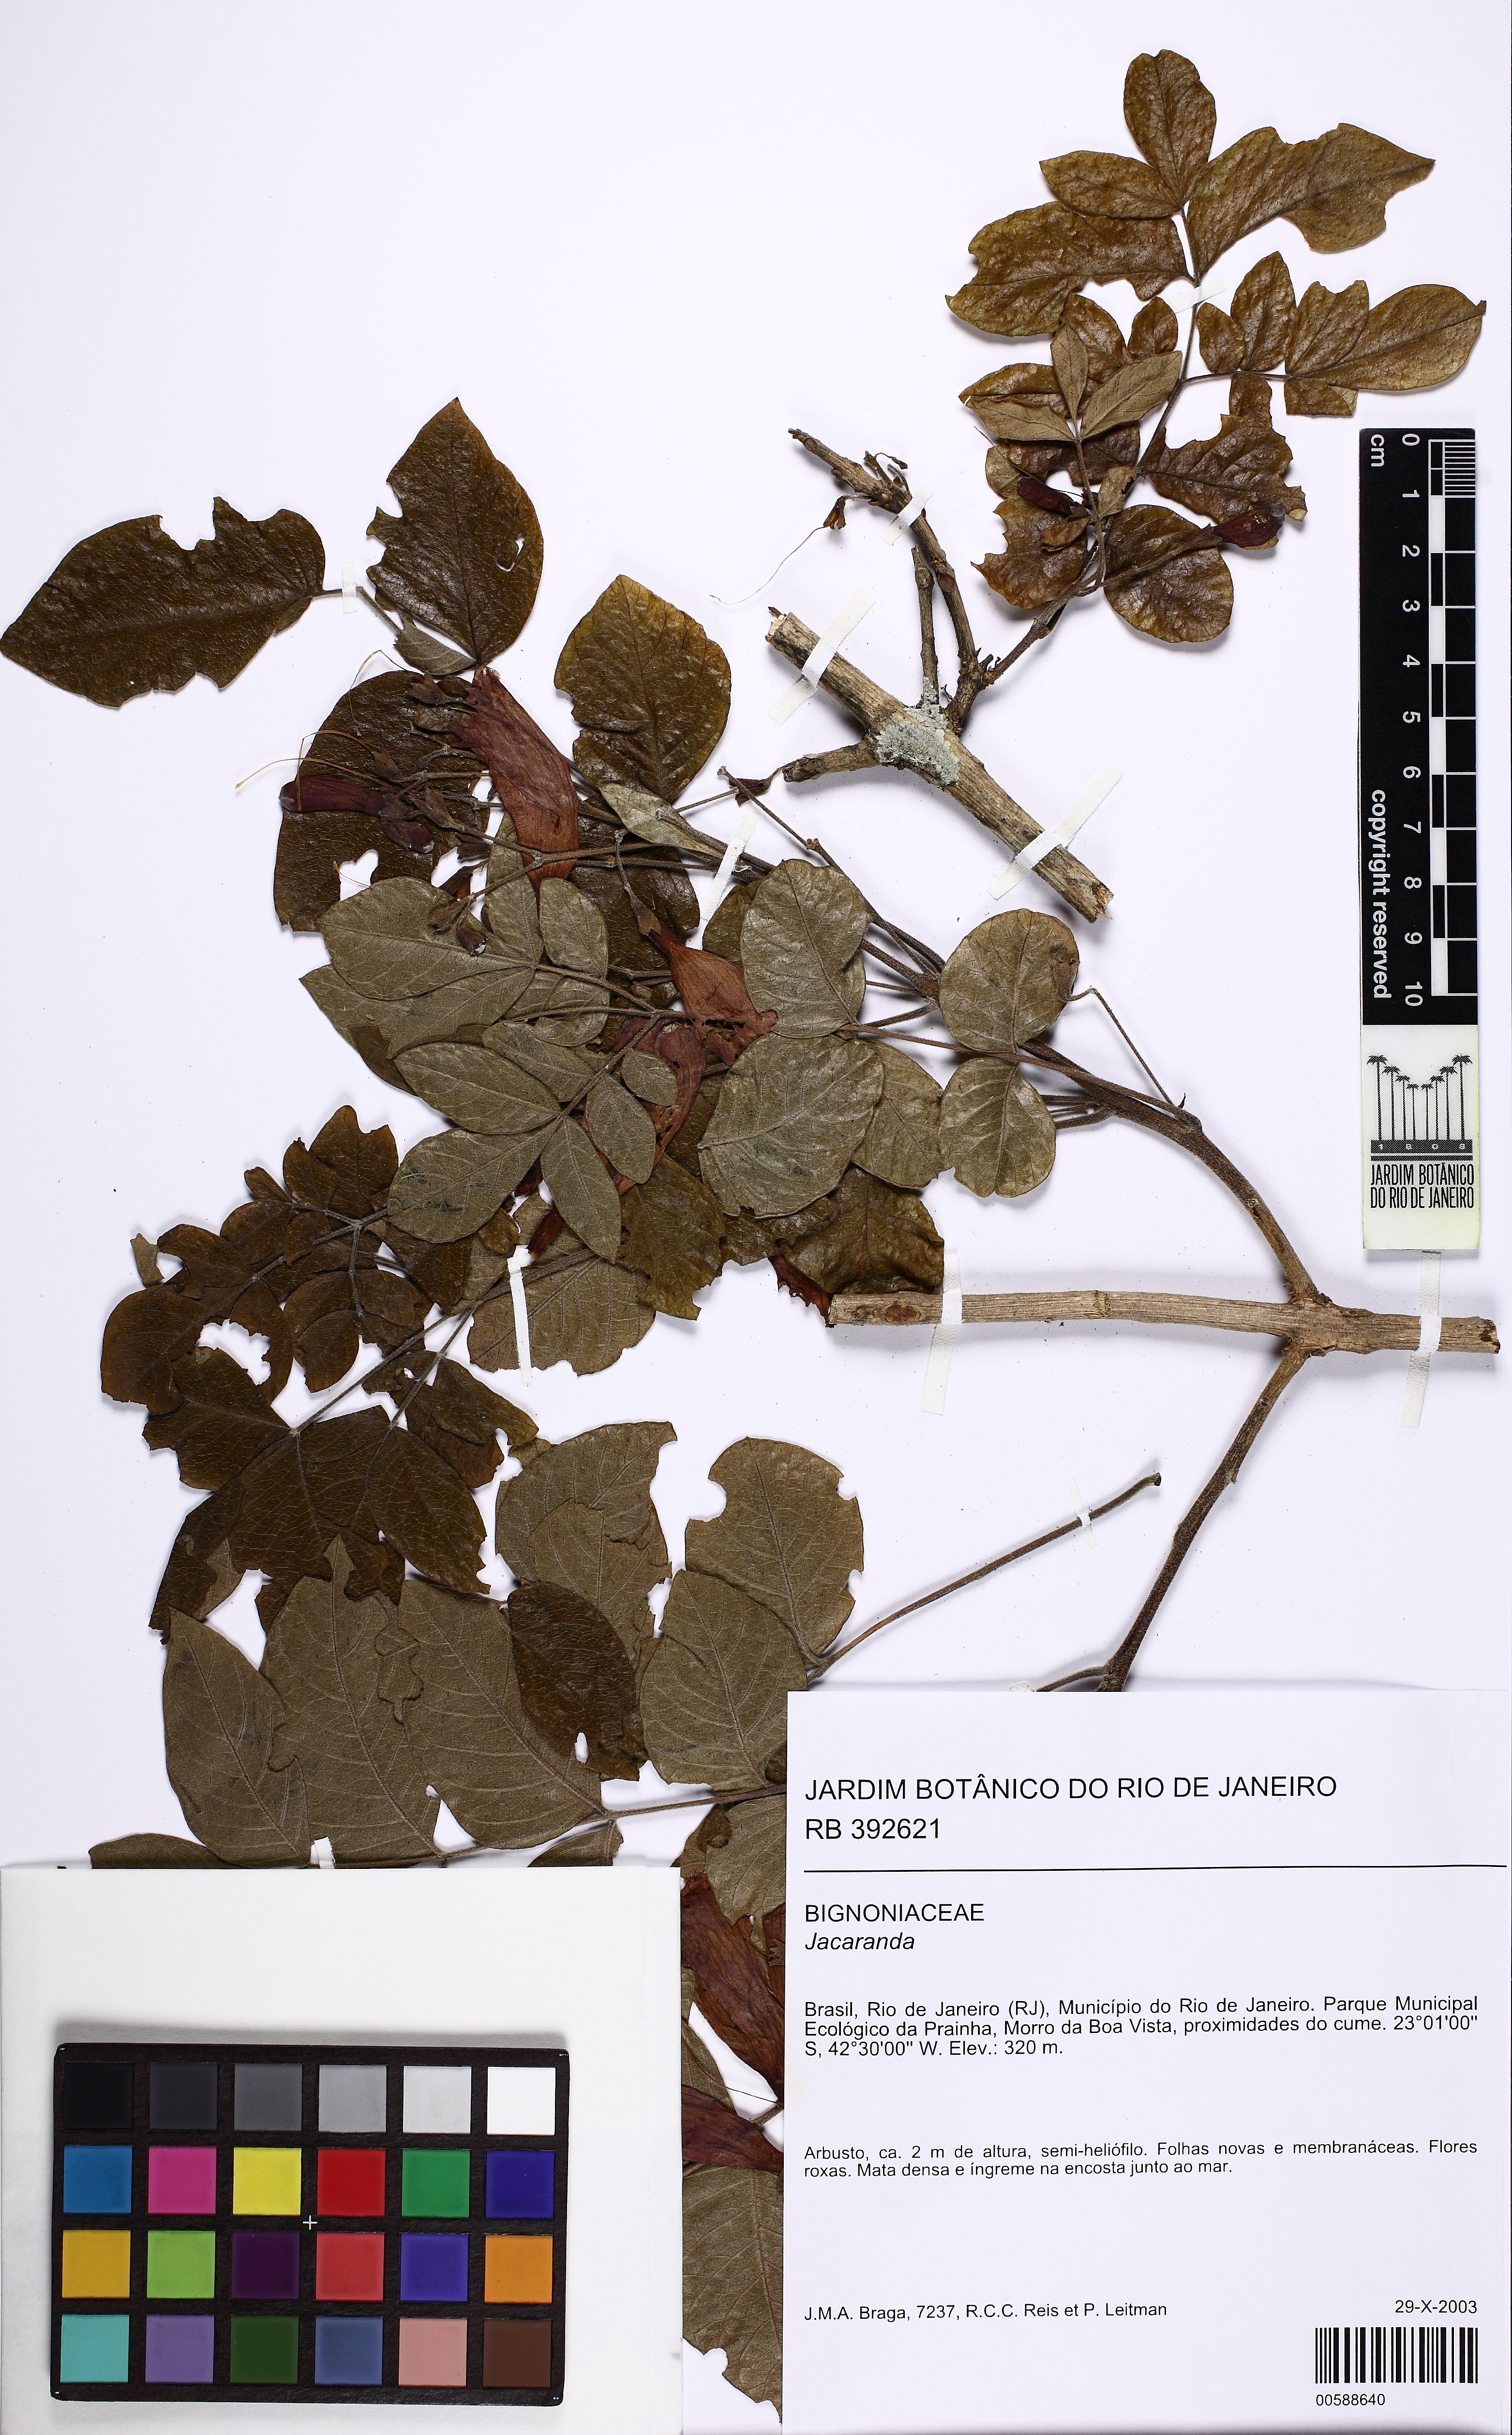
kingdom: Plantae
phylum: Tracheophyta
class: Magnoliopsida
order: Lamiales
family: Bignoniaceae
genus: Jacaranda
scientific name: Jacaranda
